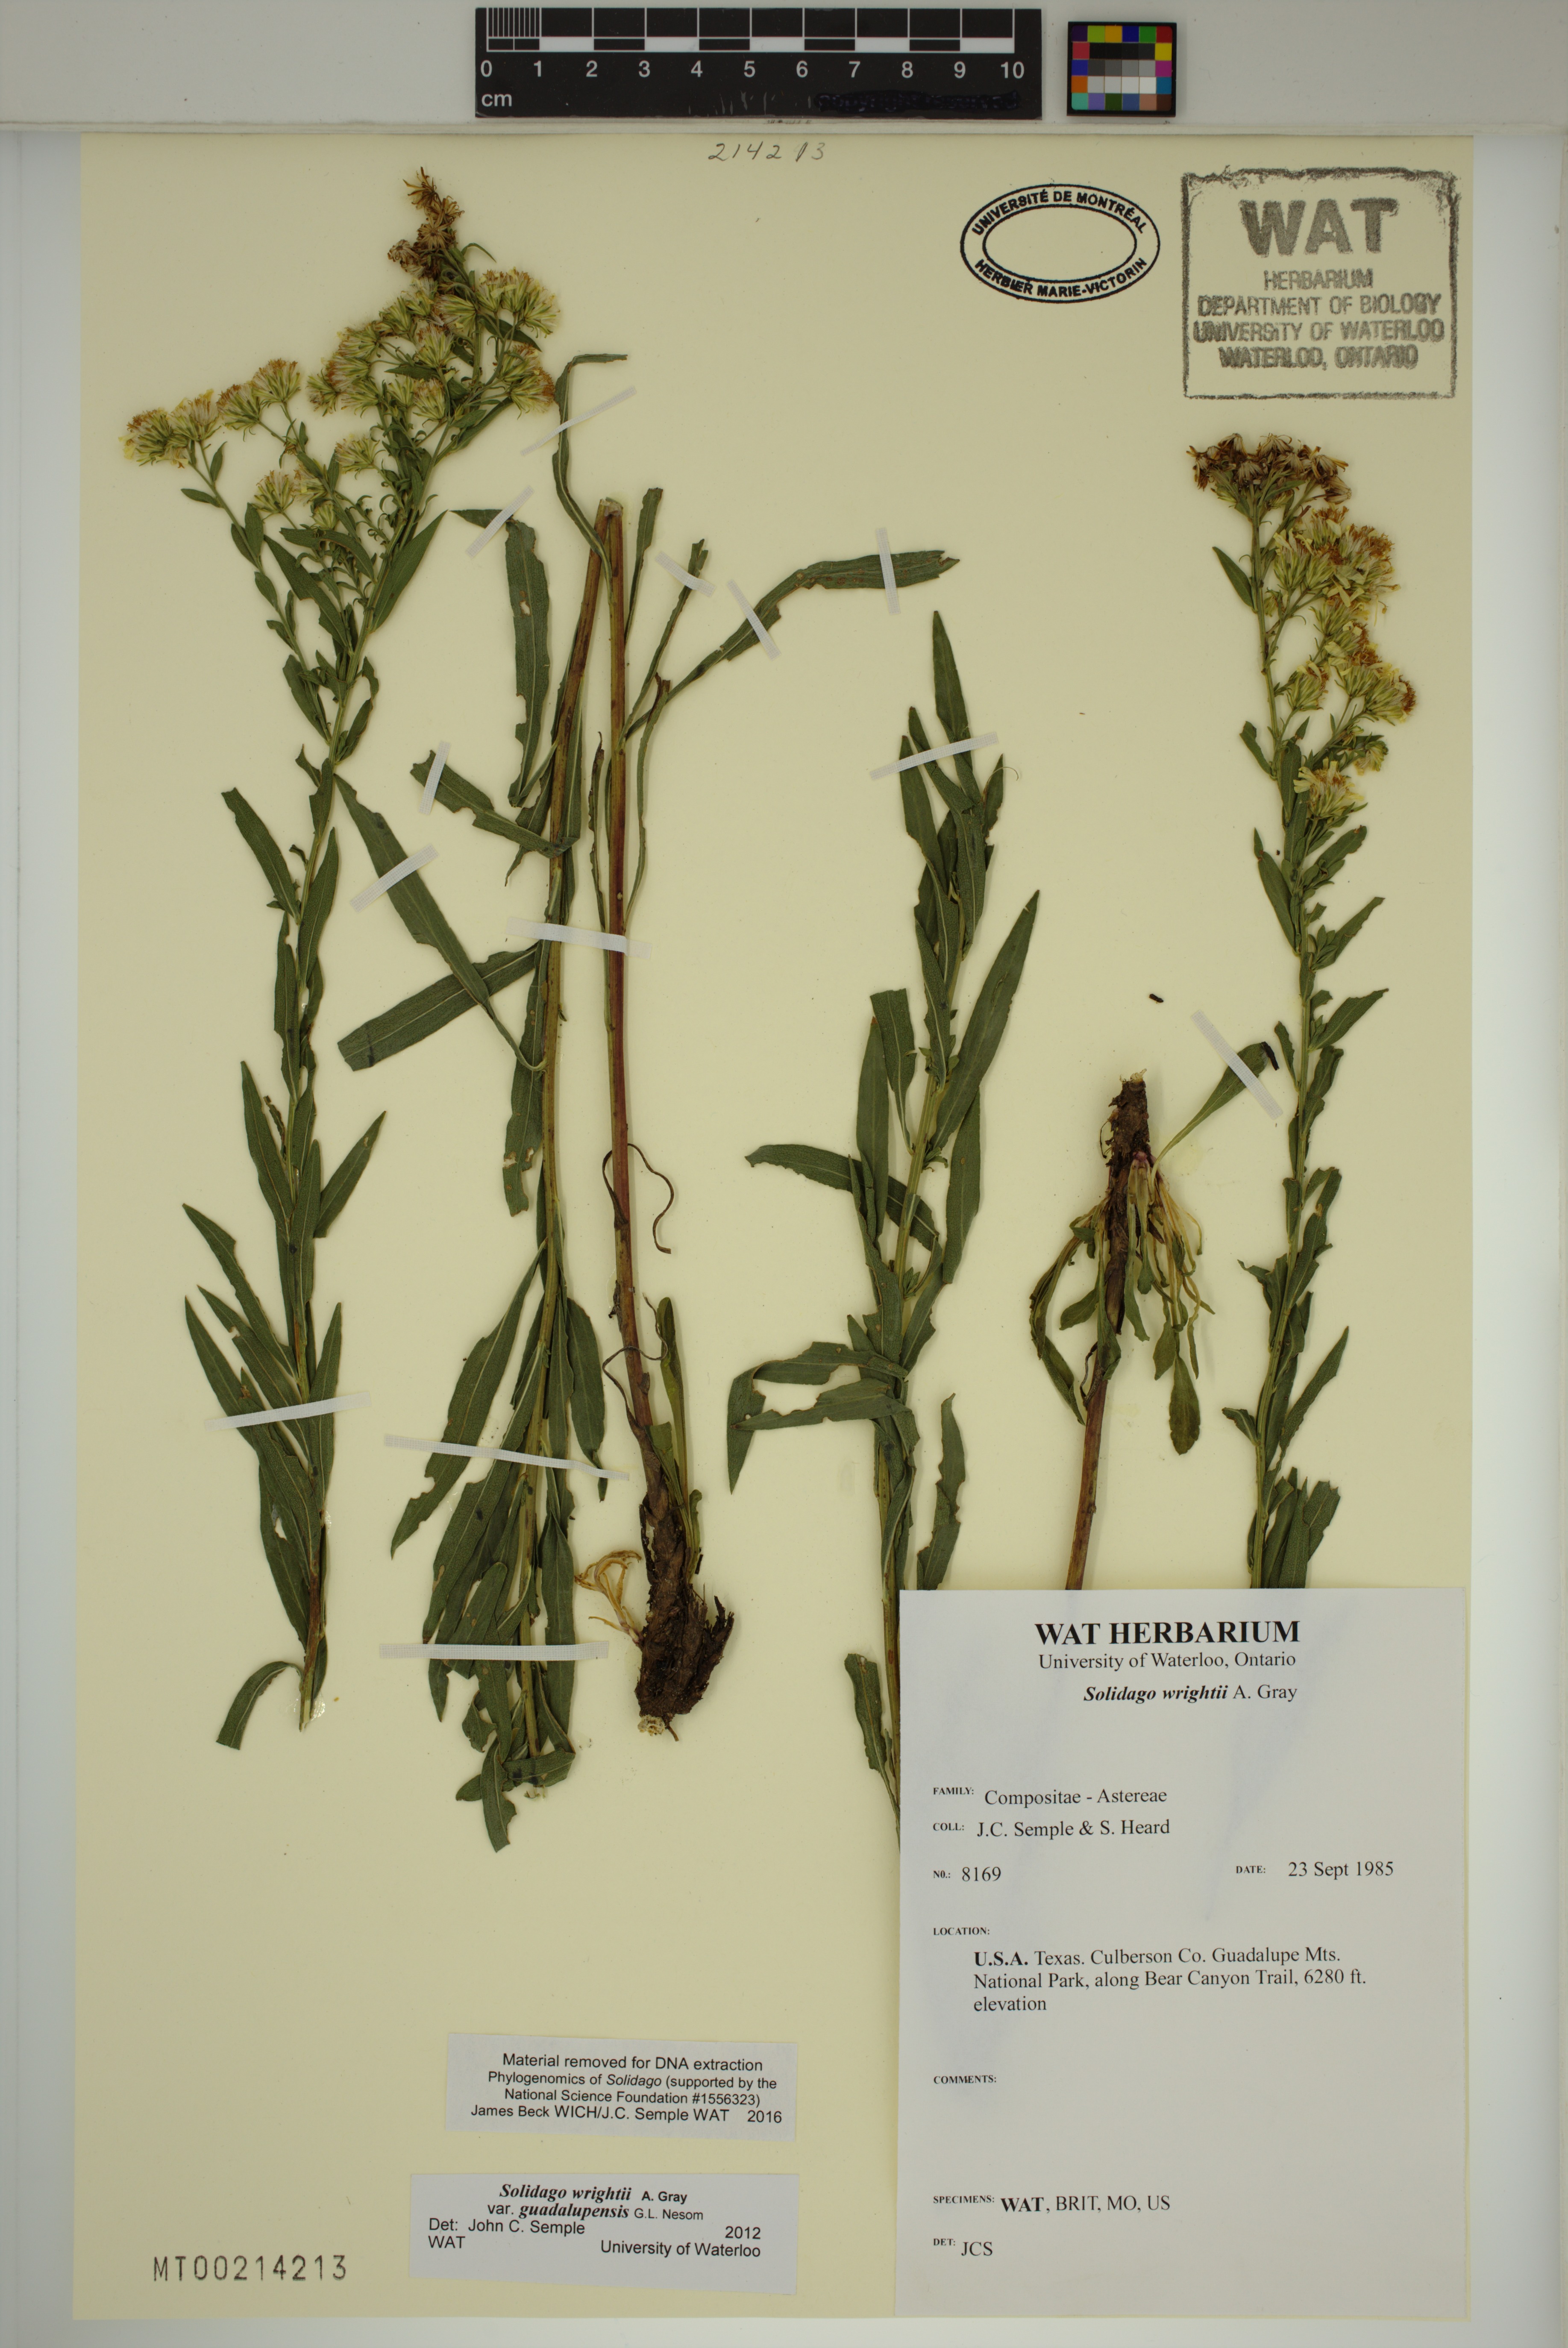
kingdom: Plantae
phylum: Tracheophyta
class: Magnoliopsida
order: Asterales
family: Asteraceae
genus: Solidago
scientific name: Solidago correllii
